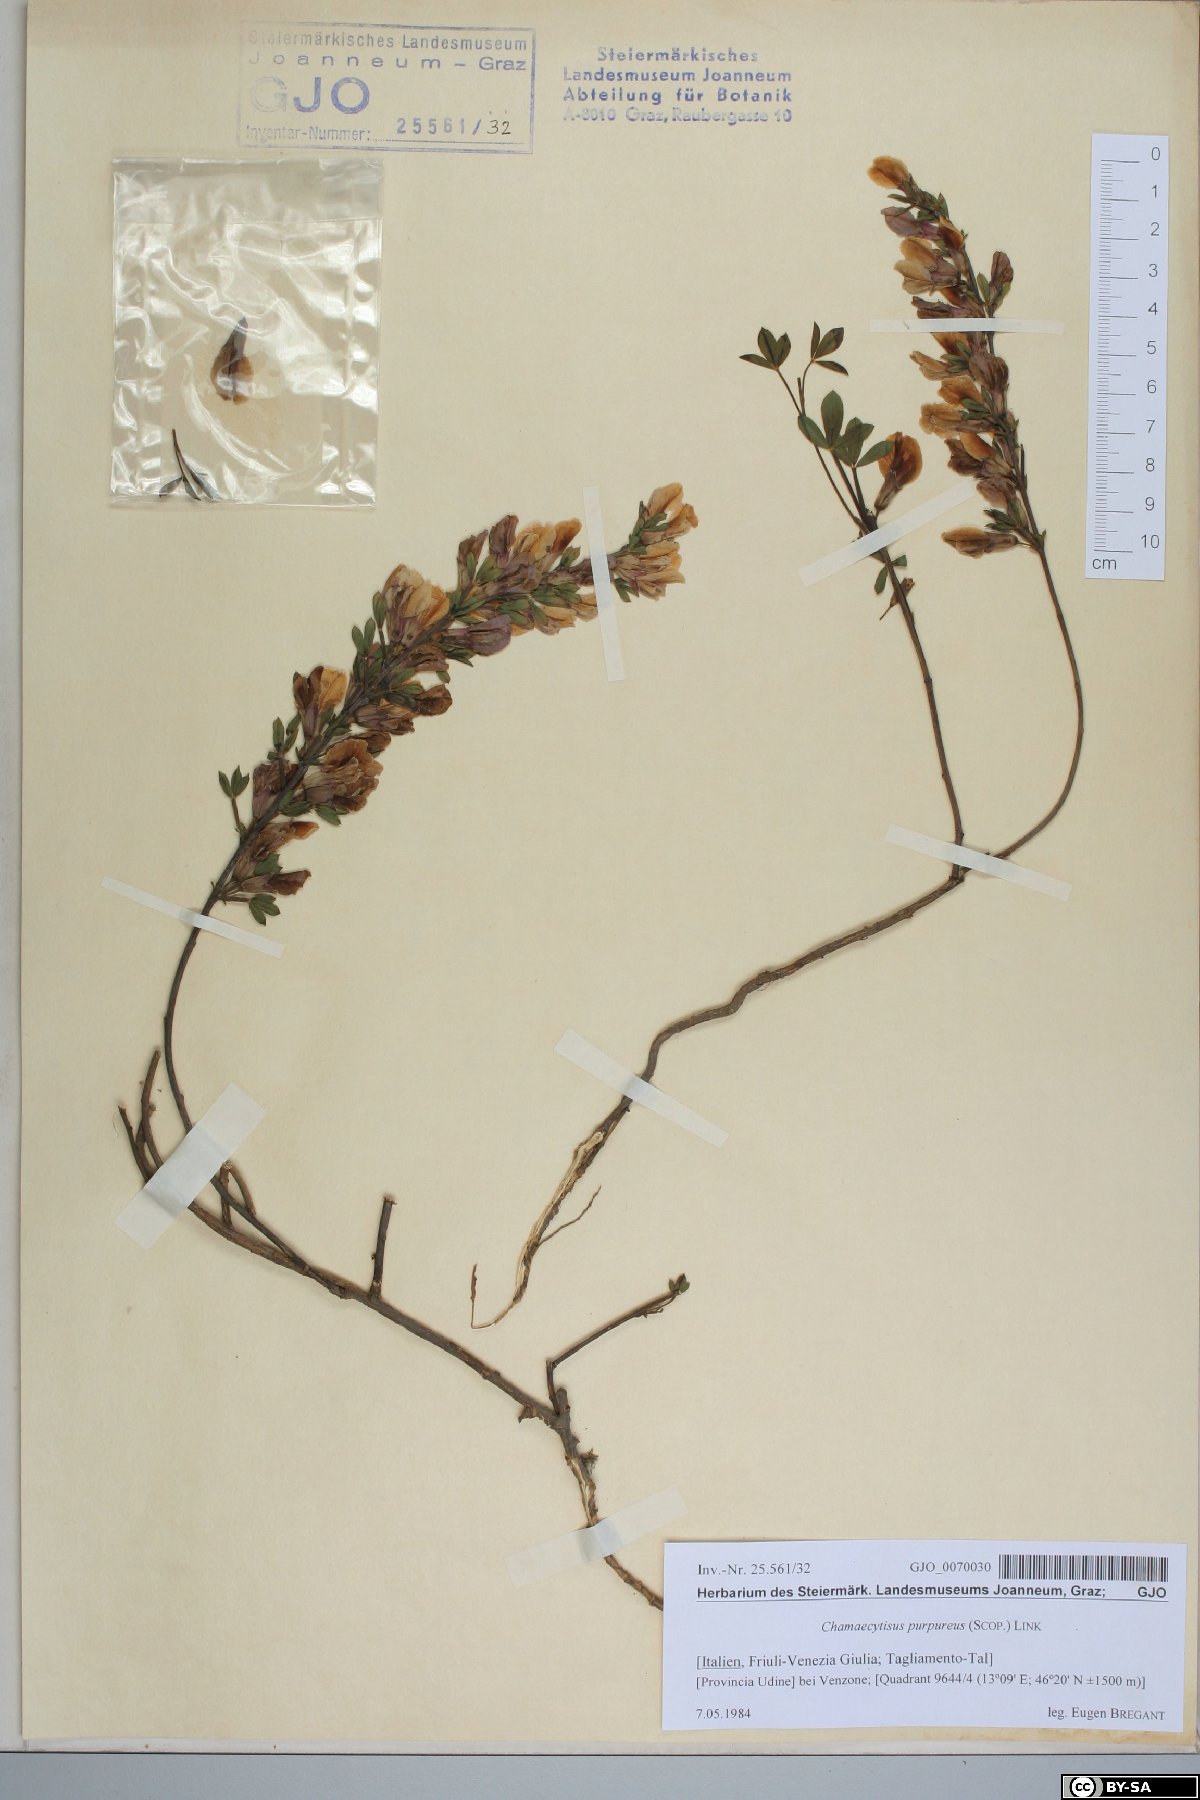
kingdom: Plantae
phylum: Tracheophyta
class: Magnoliopsida
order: Fabales
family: Fabaceae
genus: Chamaecytisus
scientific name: Chamaecytisus purpureus
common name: Purple broom
